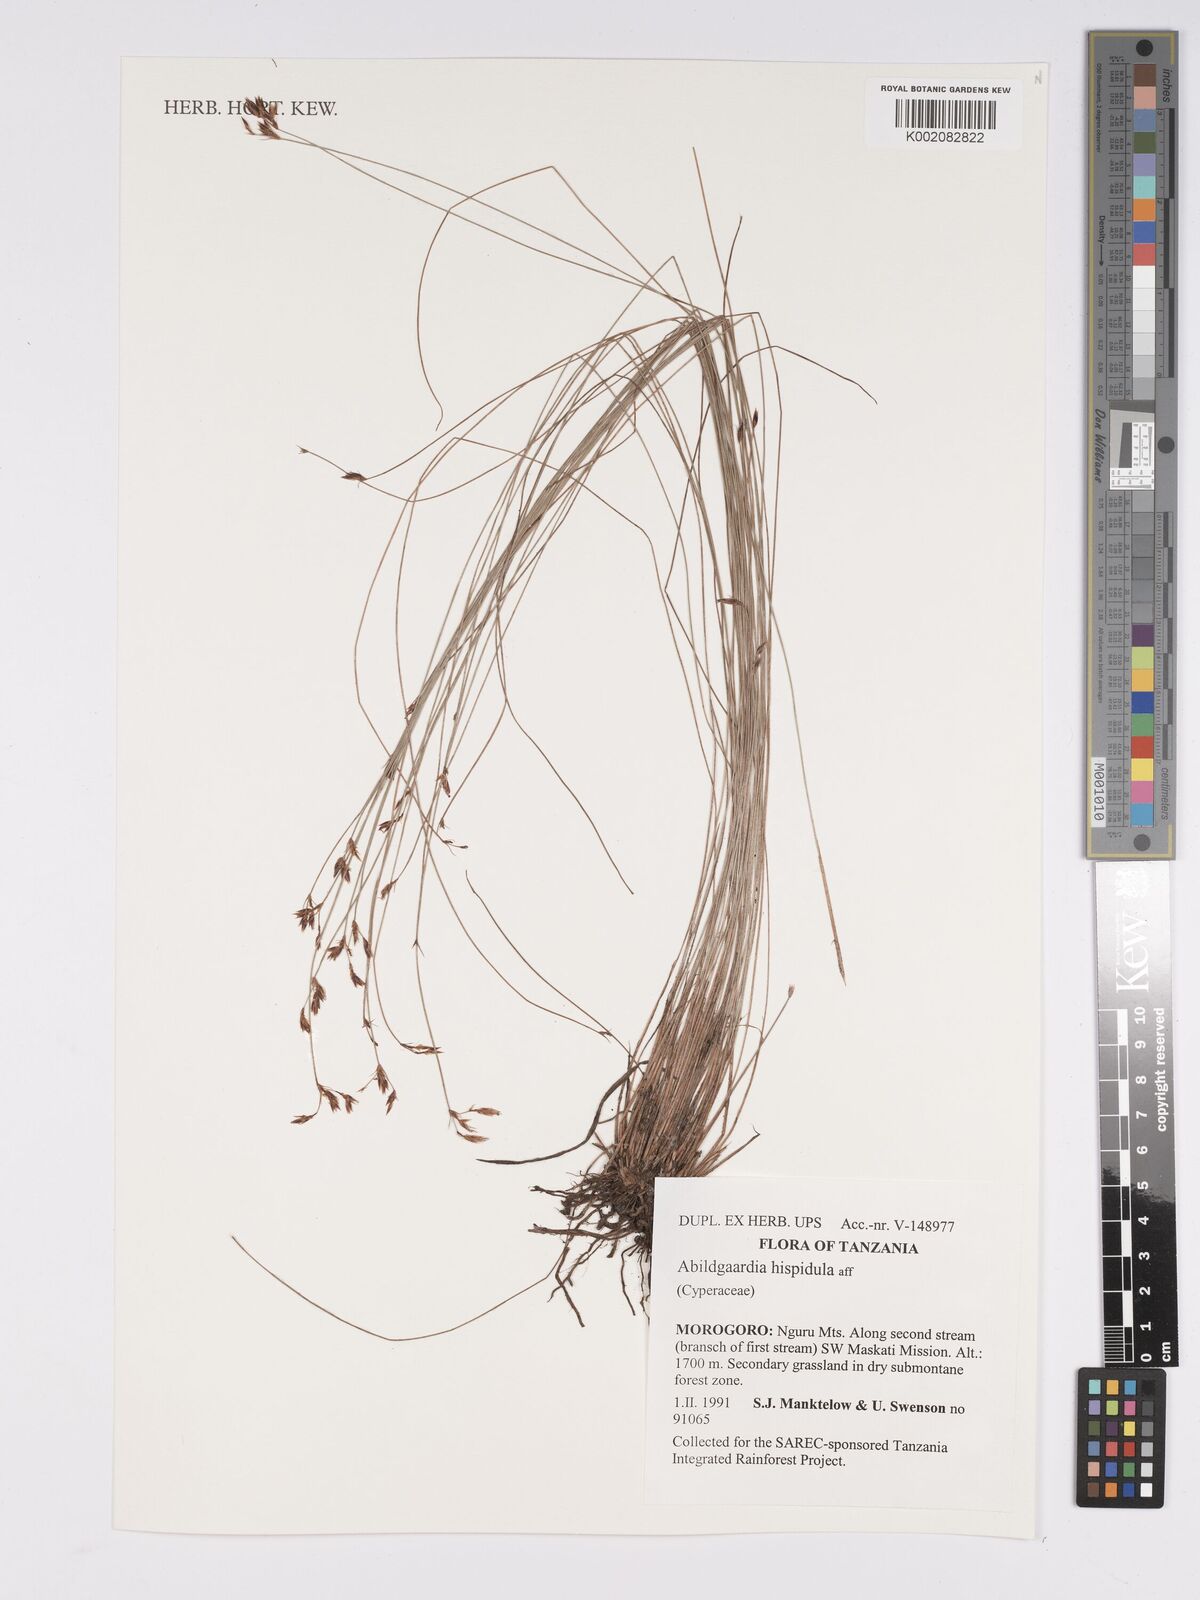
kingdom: Plantae
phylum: Tracheophyta
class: Liliopsida
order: Poales
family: Cyperaceae
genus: Bulbostylis
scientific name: Bulbostylis hispidula
